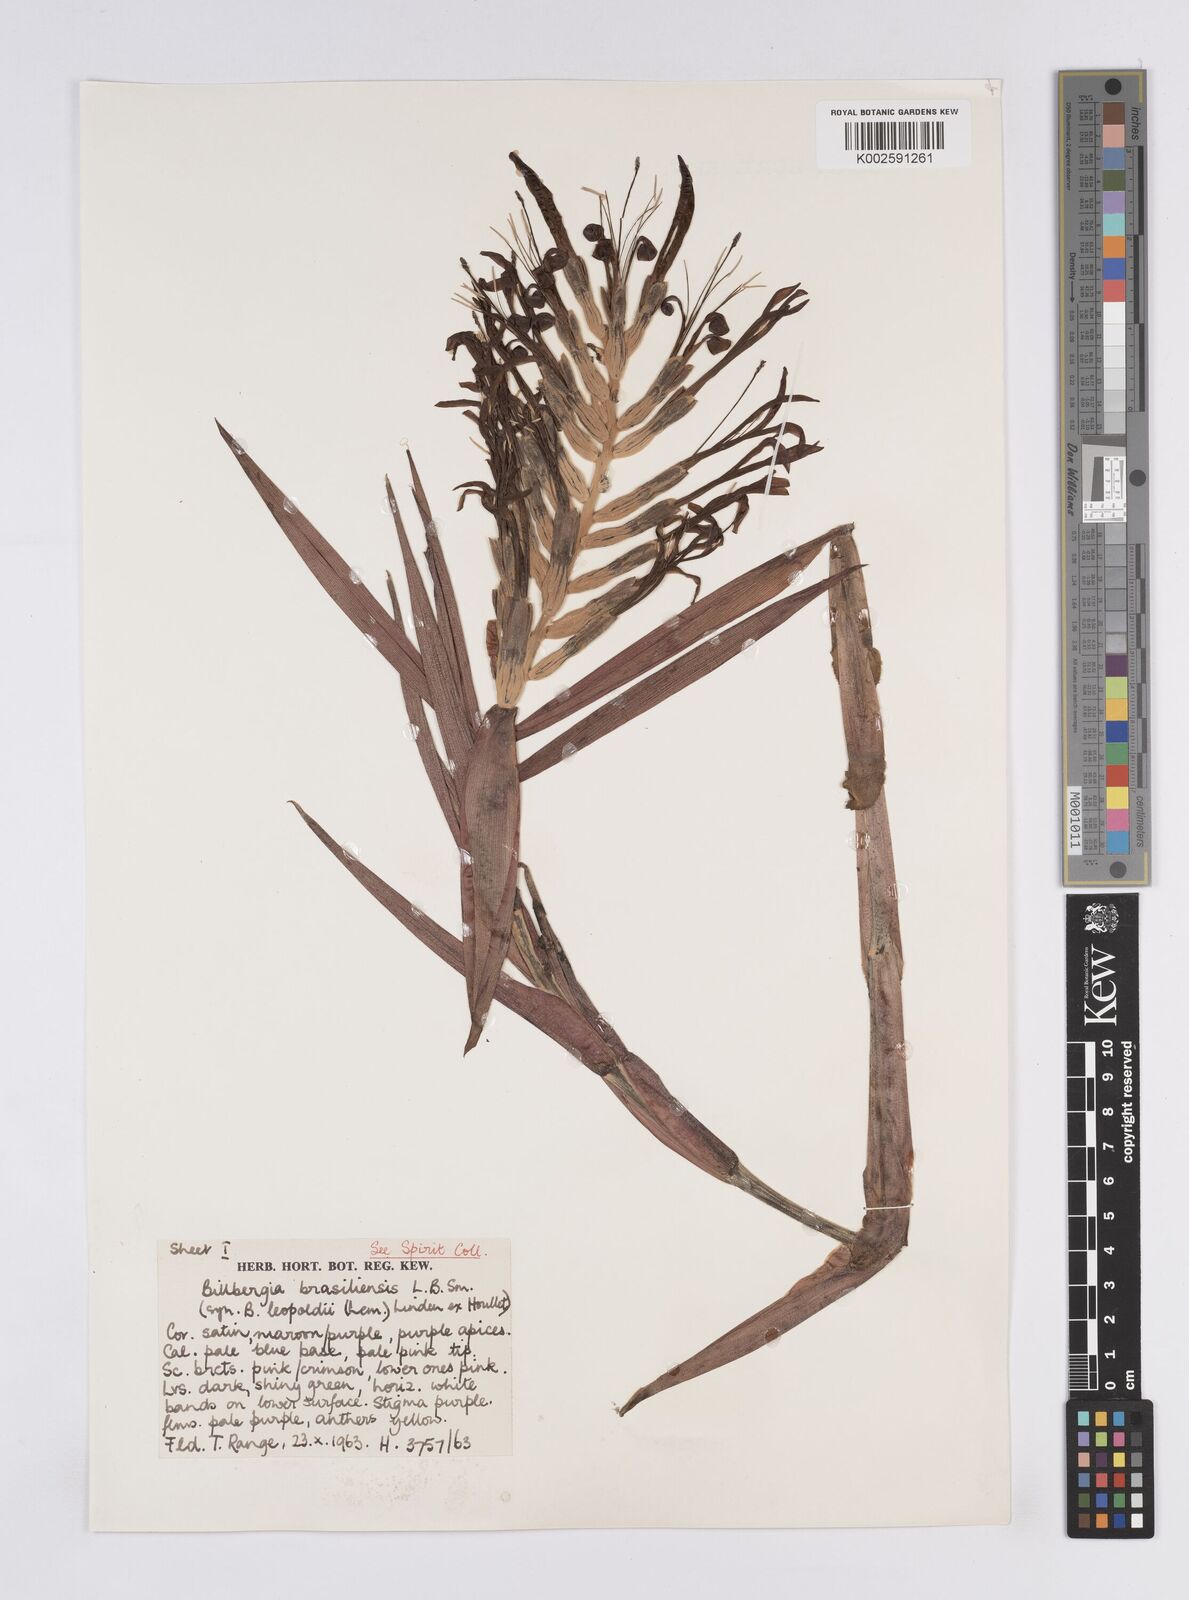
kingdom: Plantae
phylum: Tracheophyta
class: Liliopsida
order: Poales
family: Bromeliaceae
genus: Billbergia
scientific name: Billbergia brasiliensis
